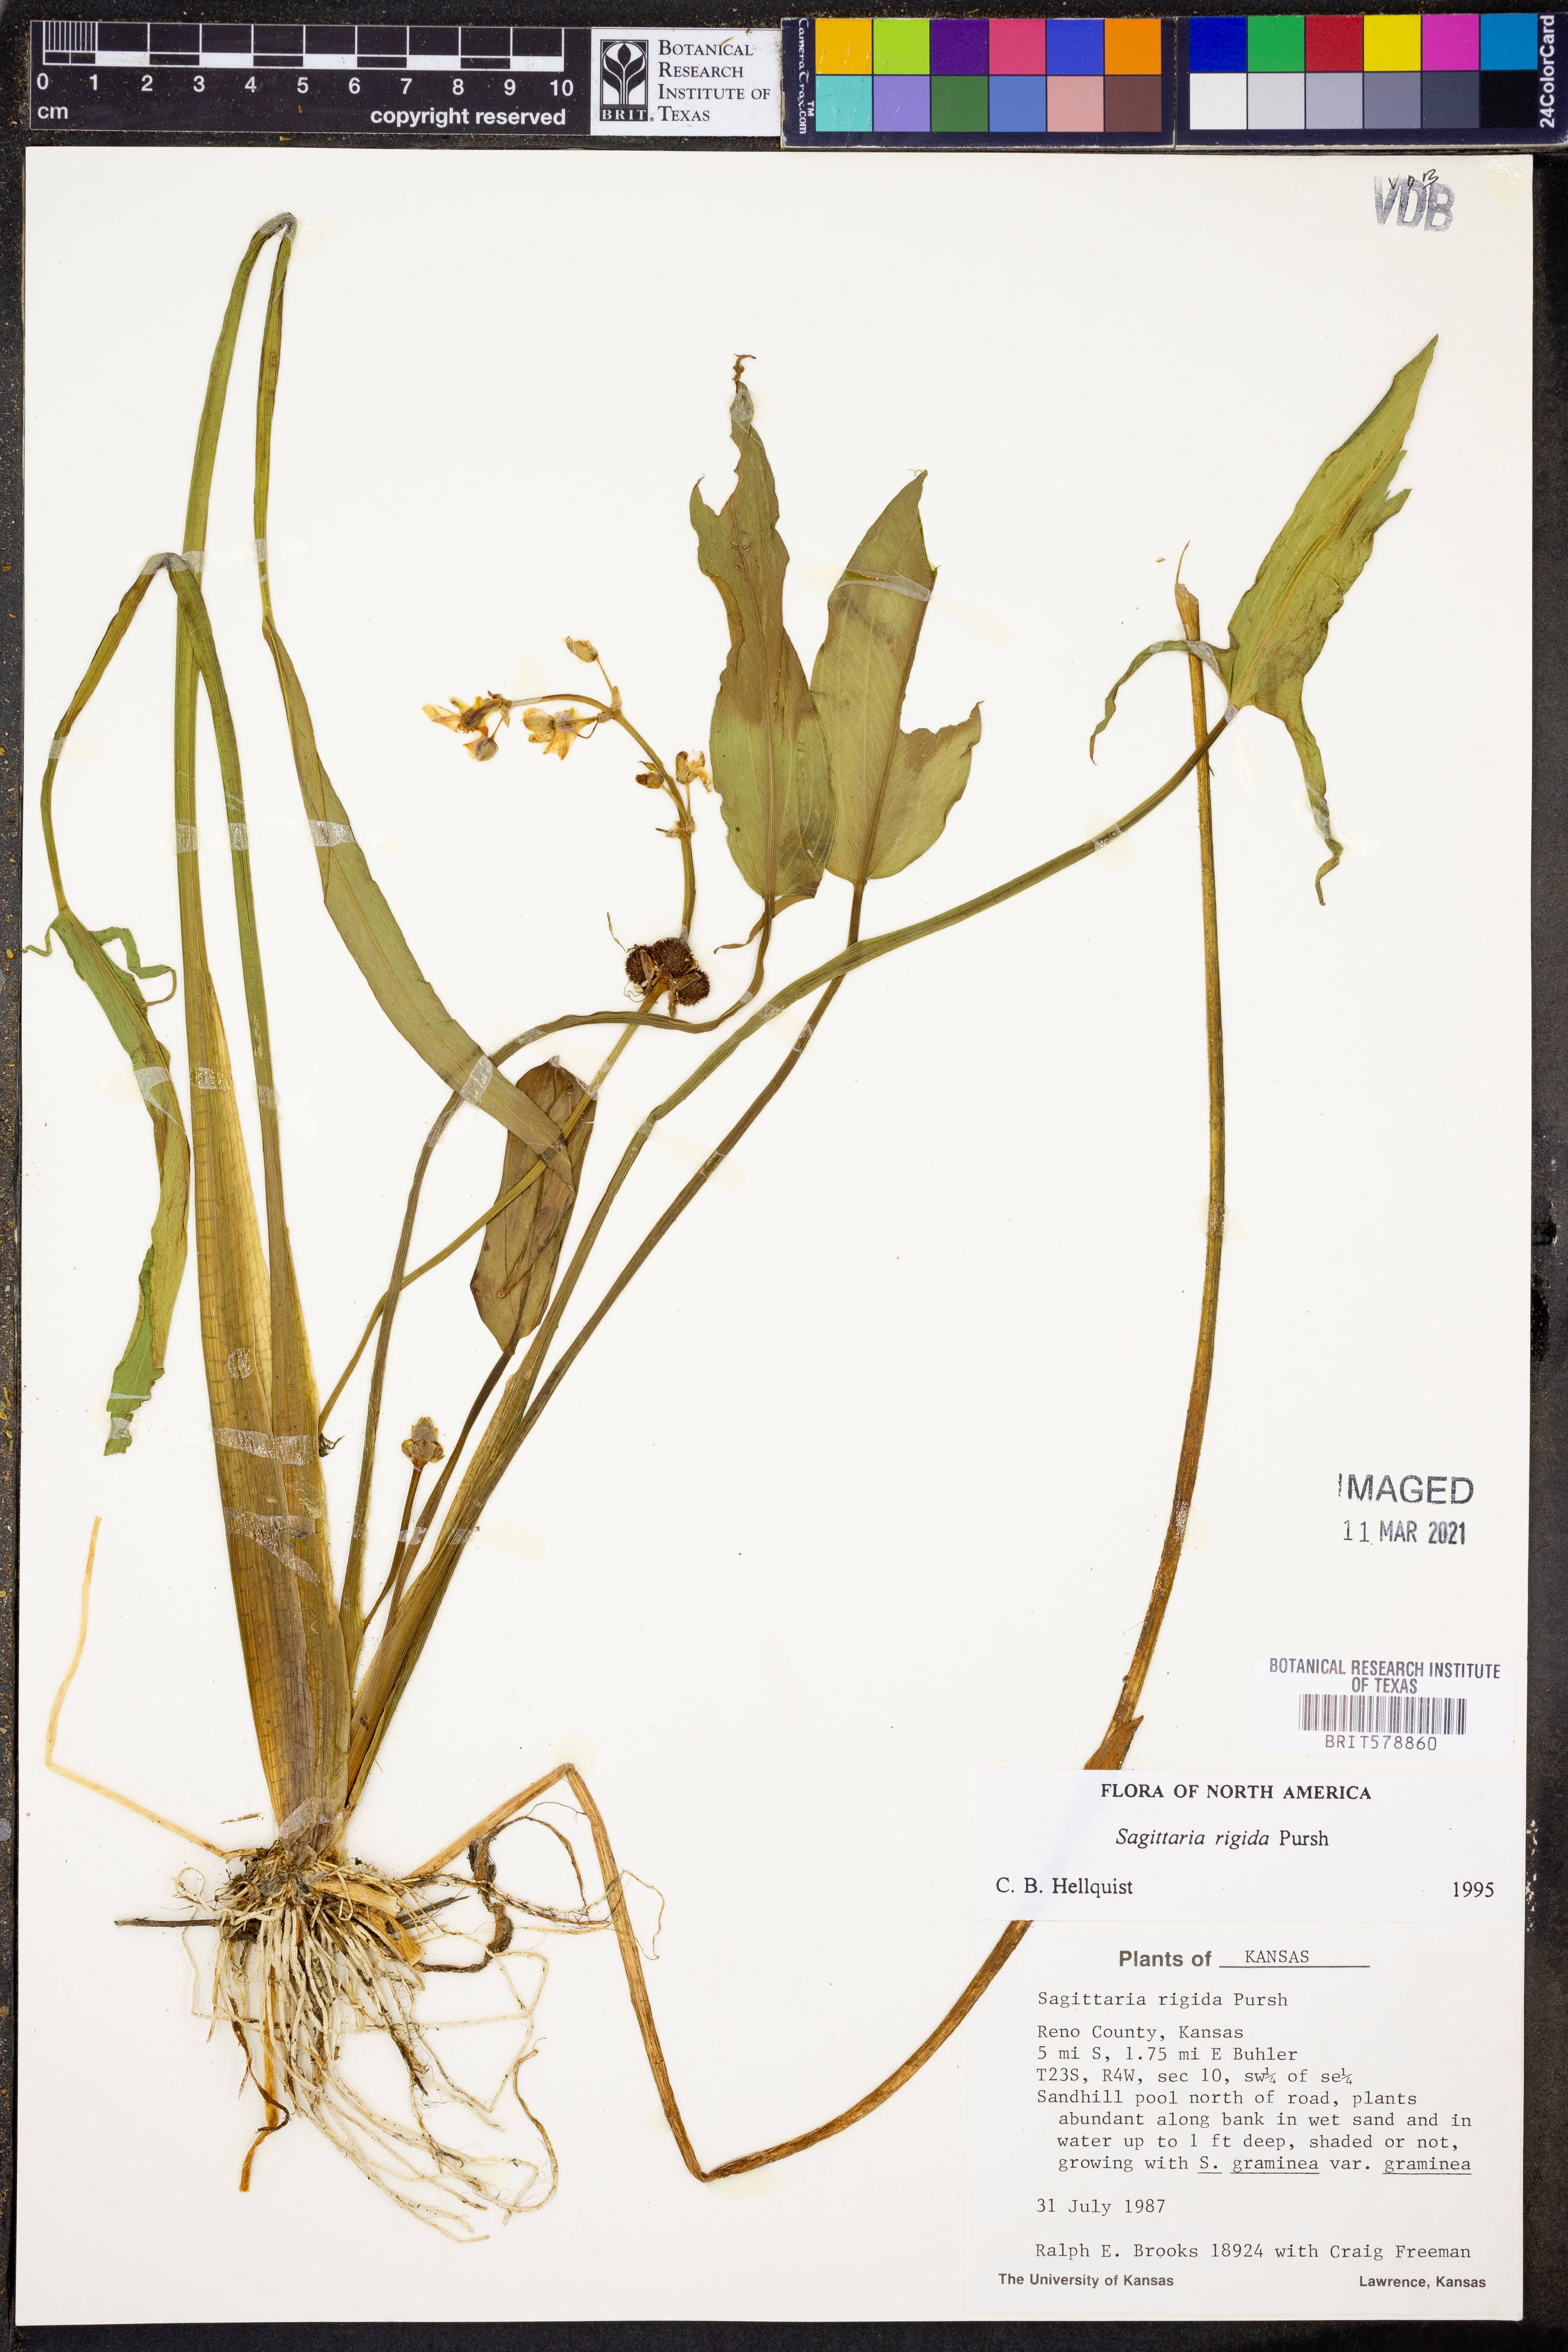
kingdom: Plantae
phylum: Tracheophyta
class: Liliopsida
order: Alismatales
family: Alismataceae
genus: Sagittaria
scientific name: Sagittaria rigida
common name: Canadian arrowhead
